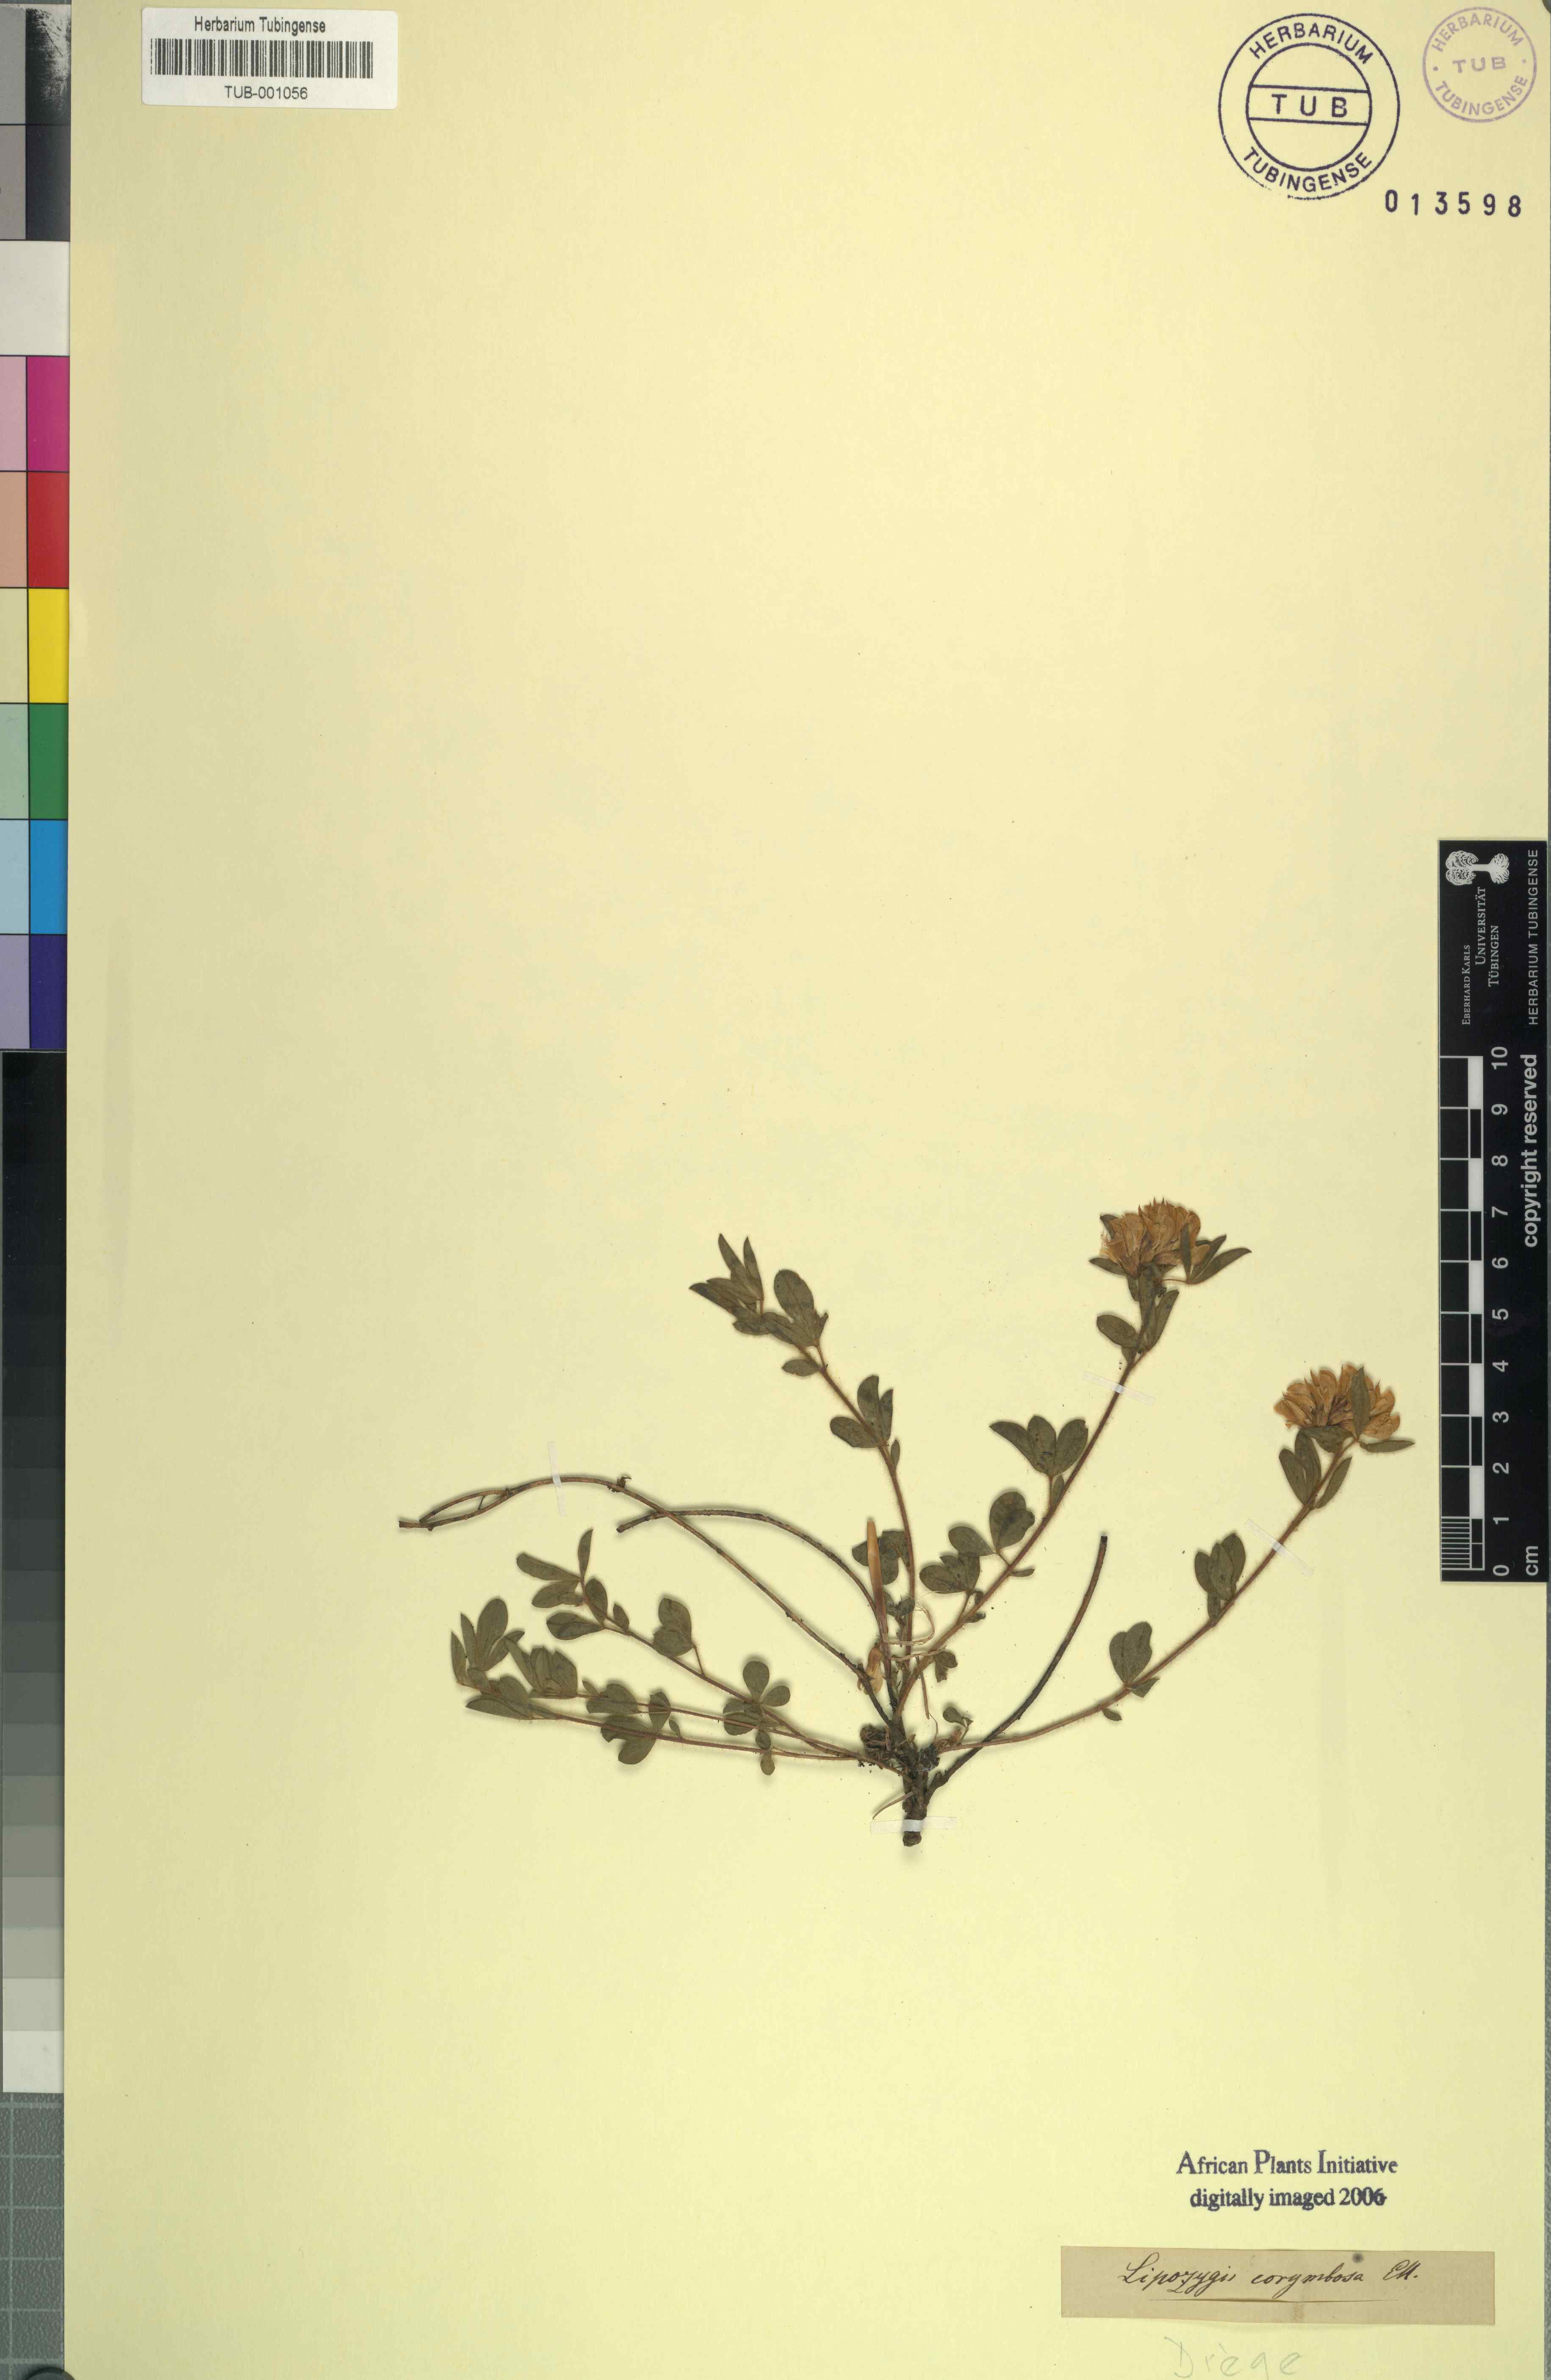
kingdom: Plantae
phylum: Tracheophyta
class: Magnoliopsida
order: Fabales
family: Fabaceae
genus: Leobordea
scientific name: Leobordea corymbosa
